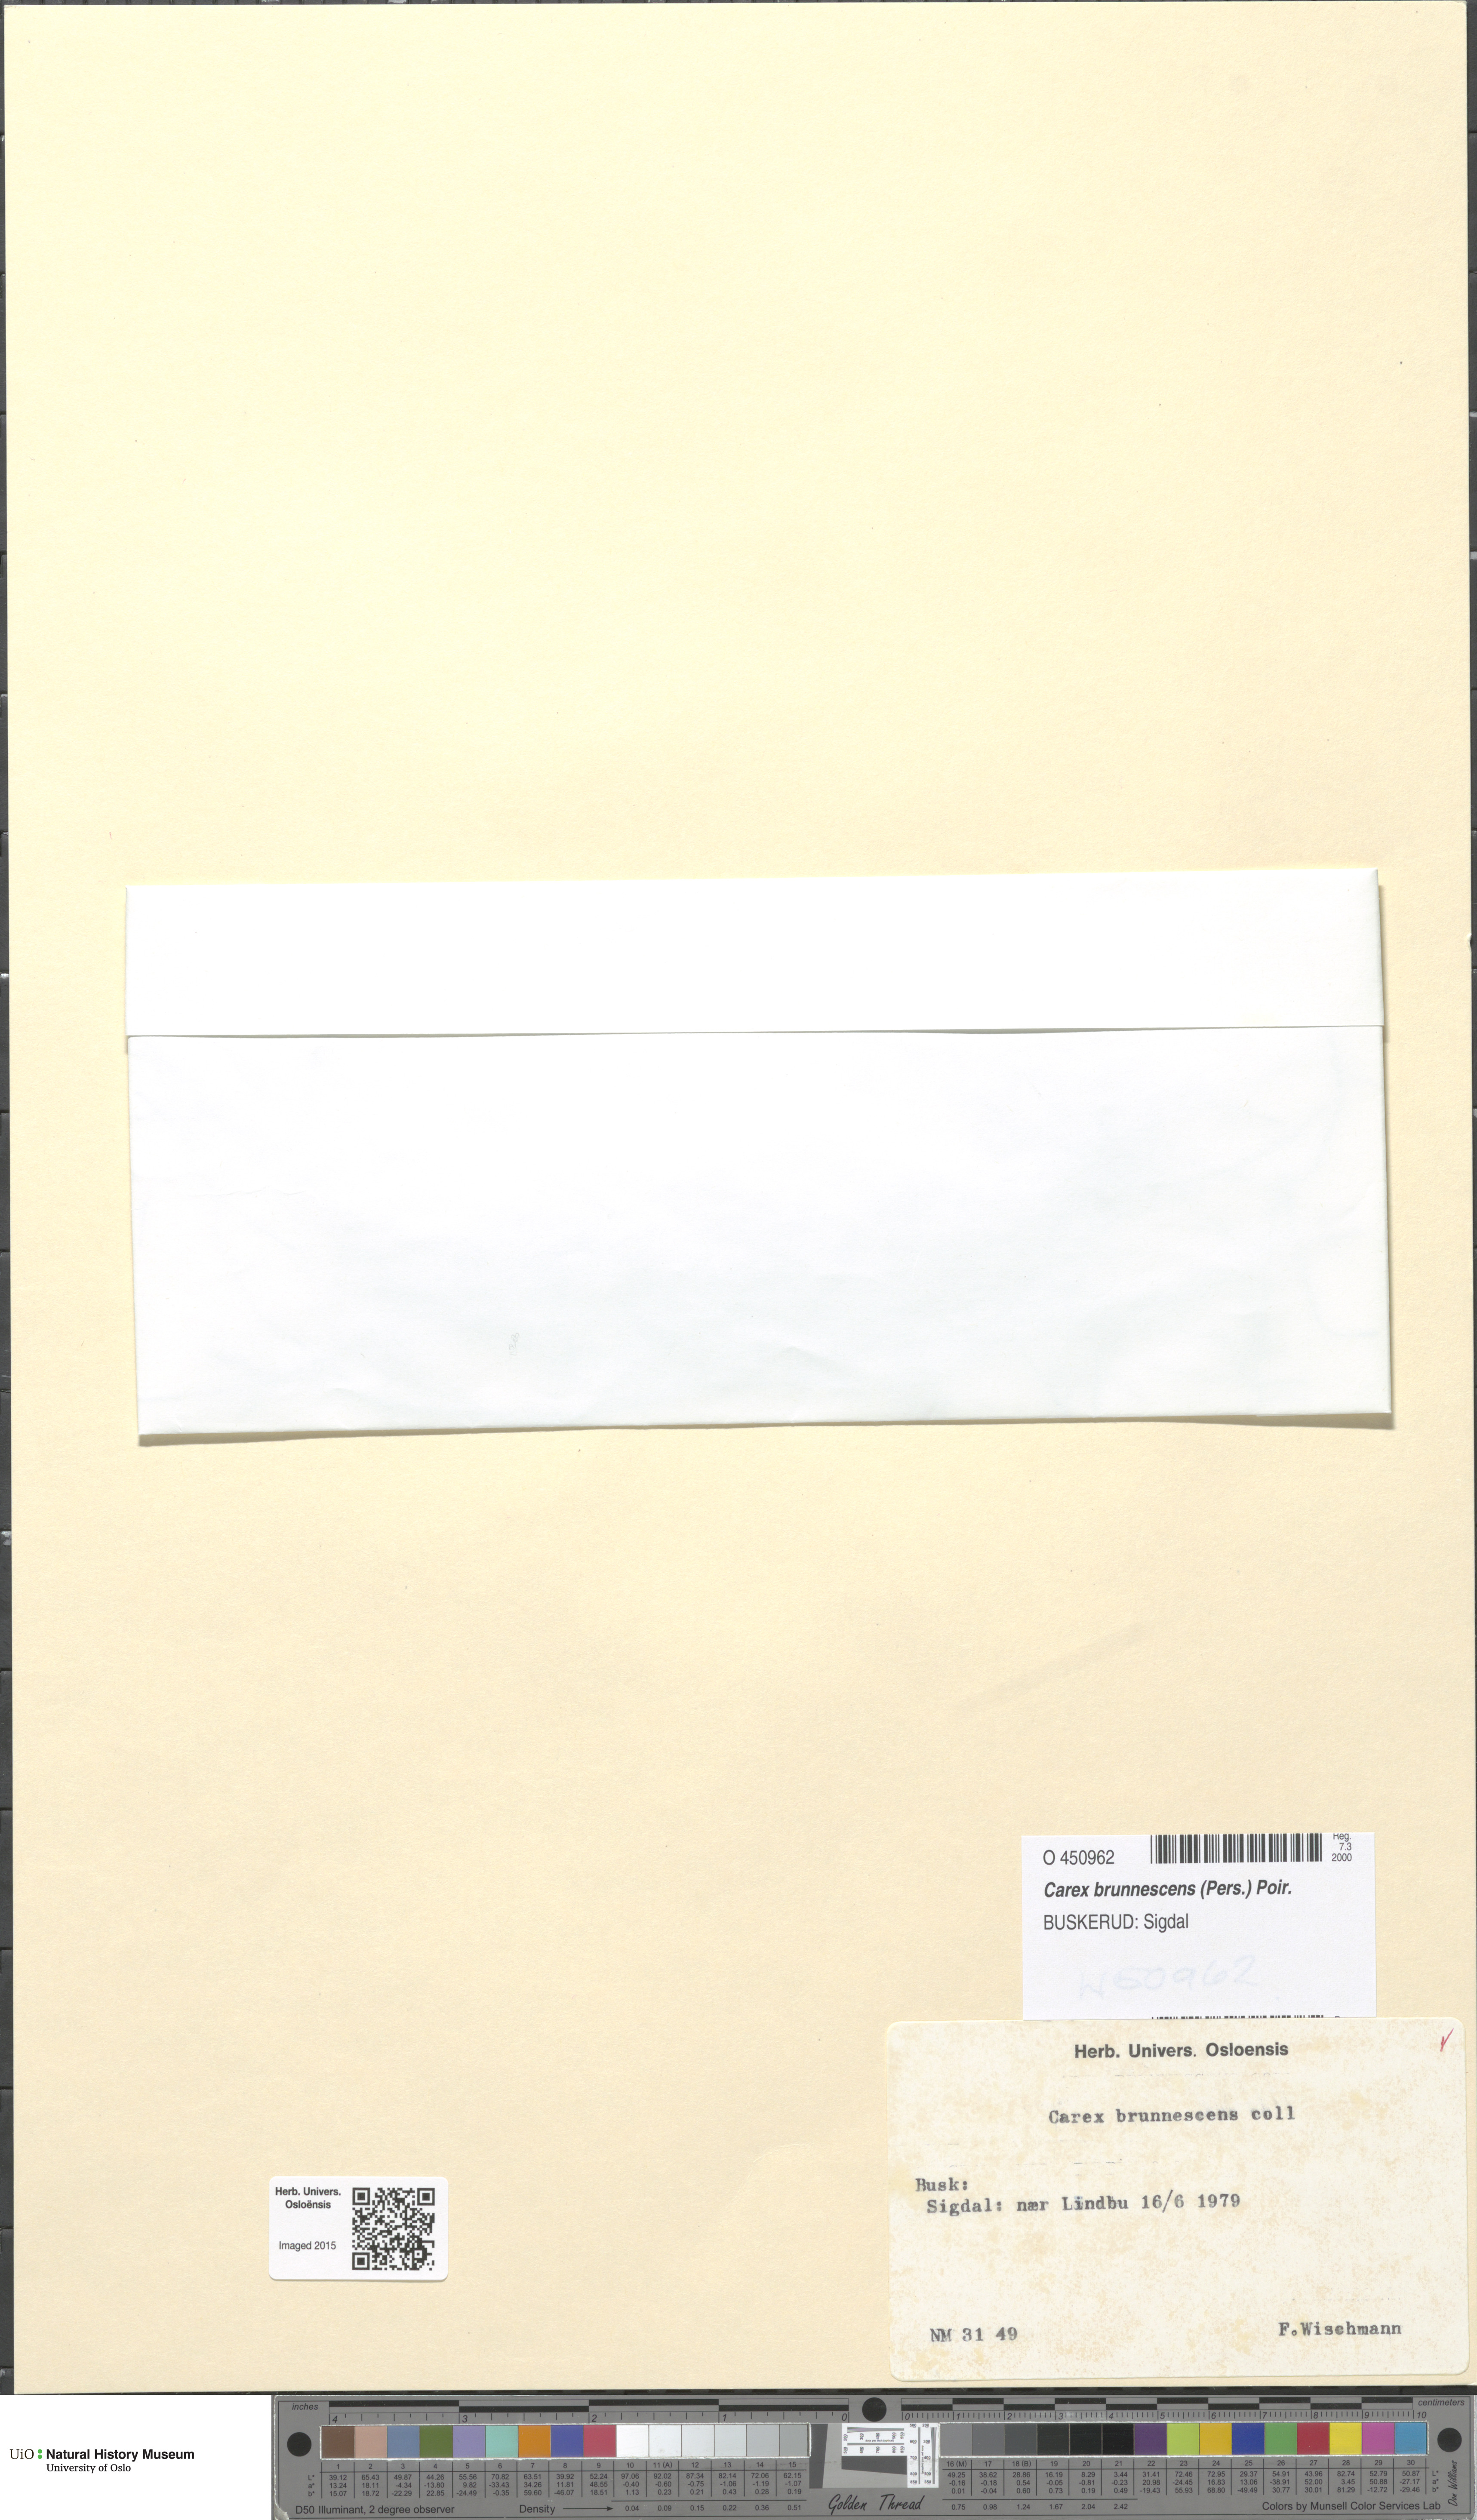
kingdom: Plantae
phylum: Tracheophyta
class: Liliopsida
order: Poales
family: Cyperaceae
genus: Carex
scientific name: Carex brunnescens
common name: Brown sedge
